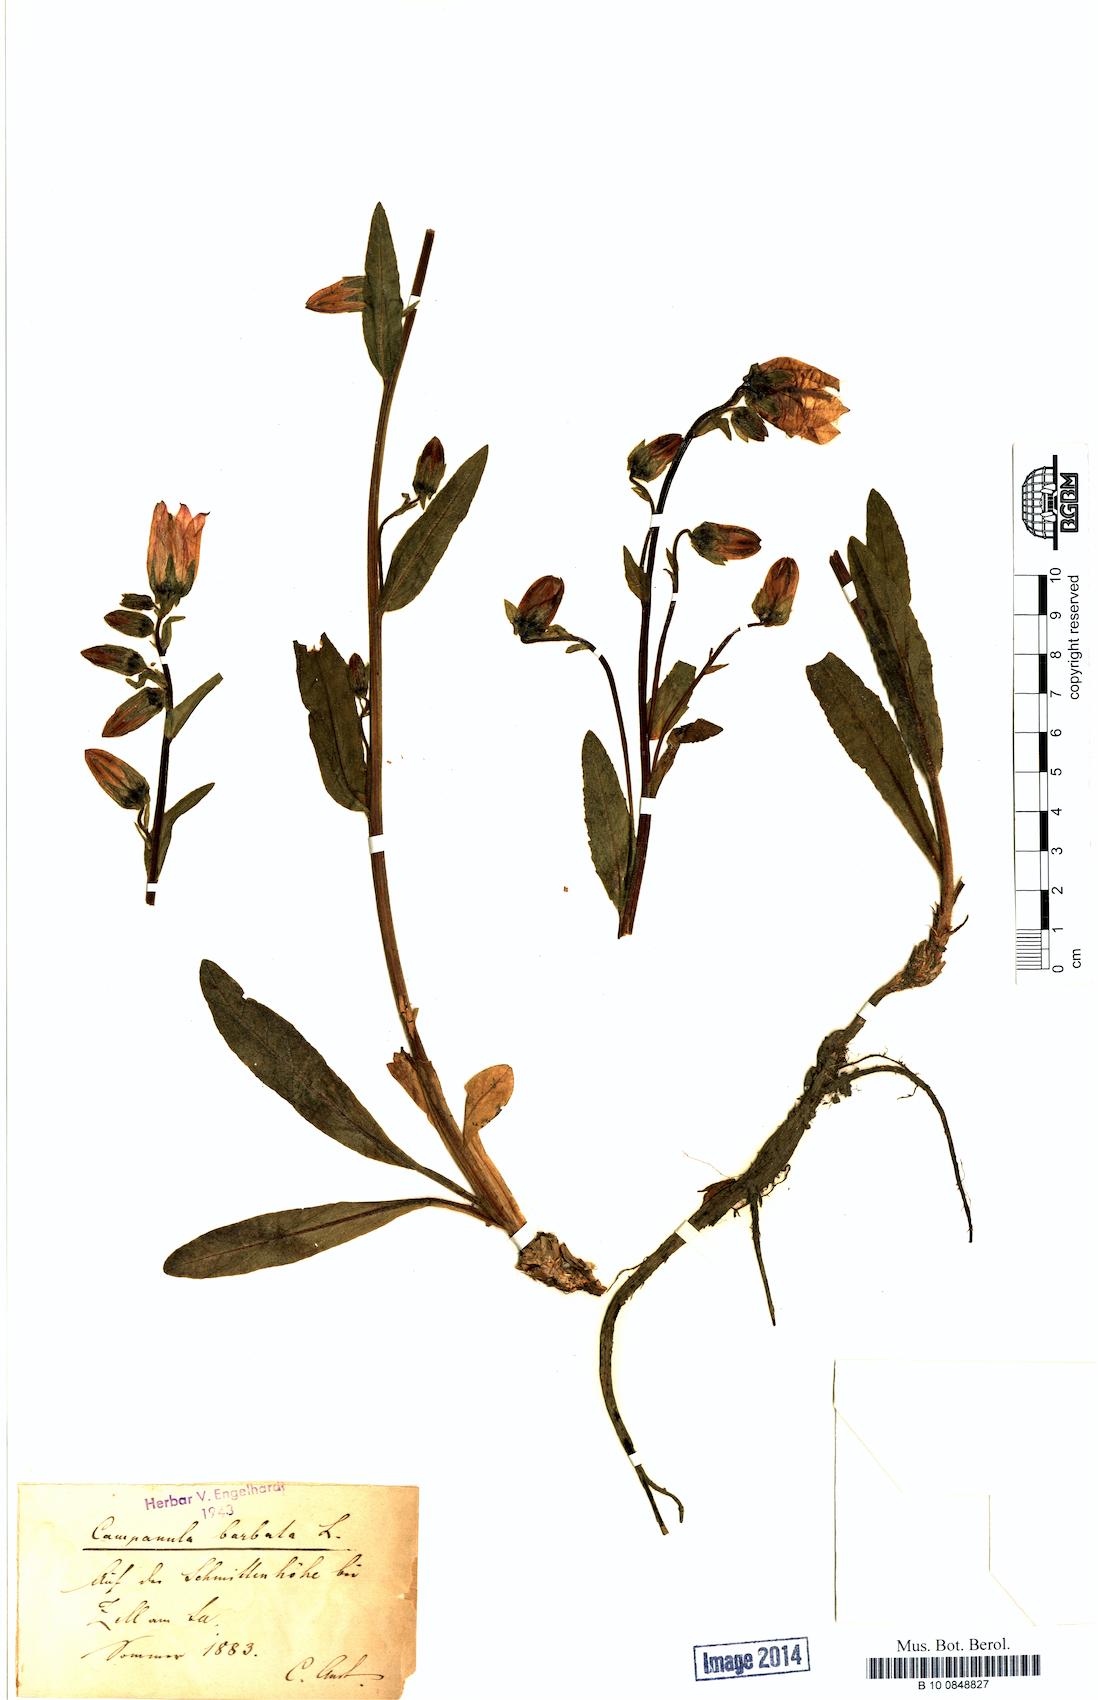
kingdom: Plantae
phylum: Tracheophyta
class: Magnoliopsida
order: Asterales
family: Campanulaceae
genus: Campanula
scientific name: Campanula barbata
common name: Bearded bellflower
